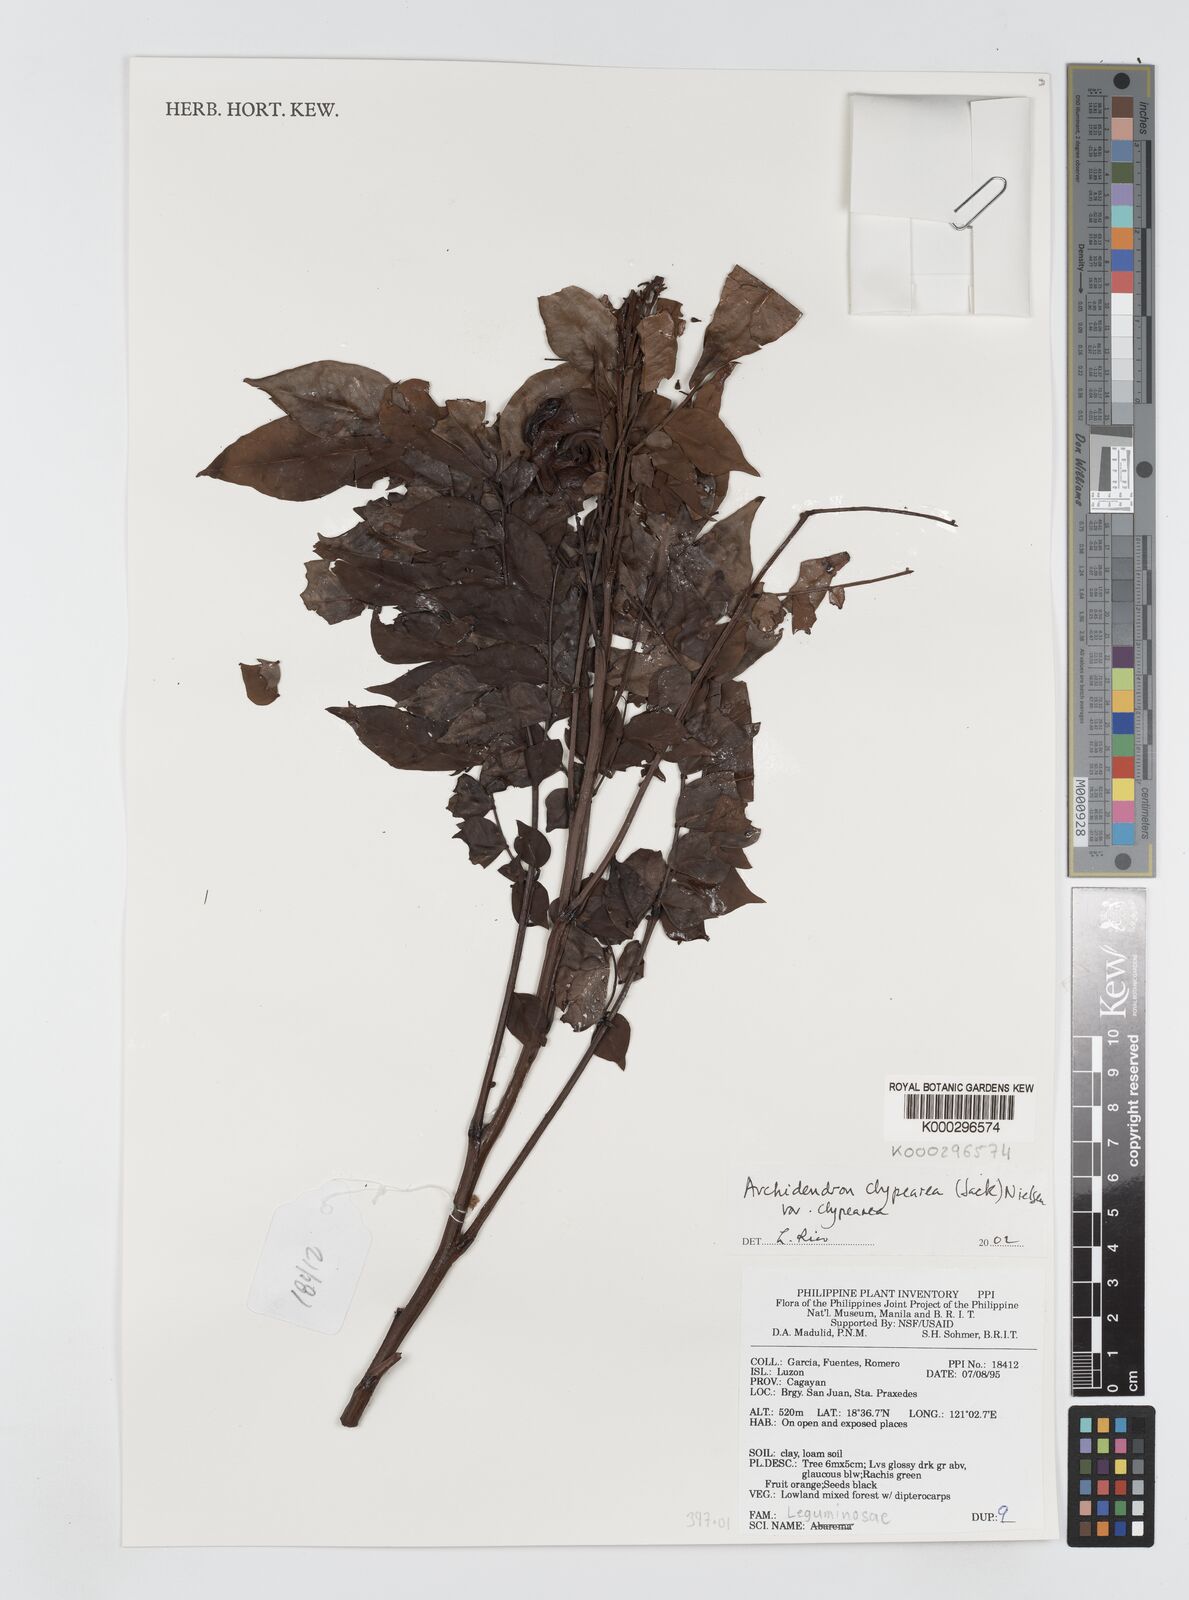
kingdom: Plantae
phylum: Tracheophyta
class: Magnoliopsida
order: Fabales
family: Fabaceae
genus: Archidendron
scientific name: Archidendron clypearia
